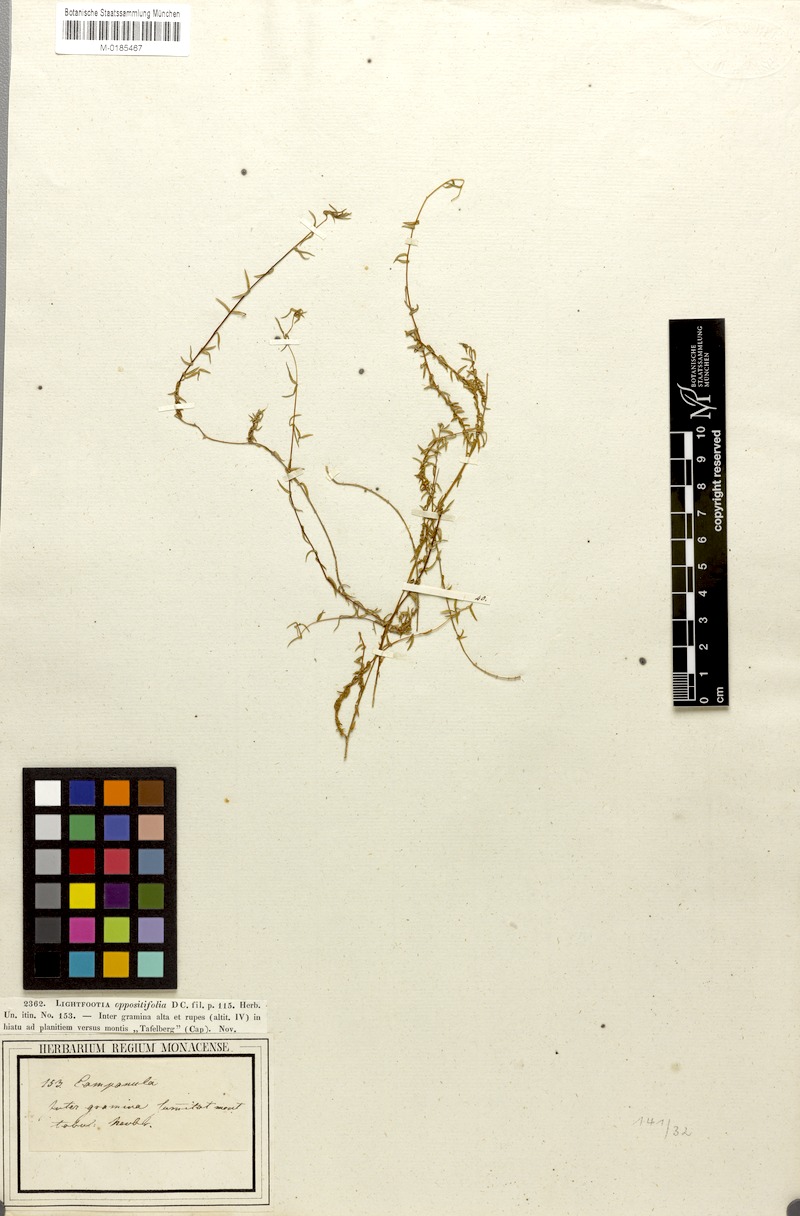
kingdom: Plantae
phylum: Tracheophyta
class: Magnoliopsida
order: Asterales
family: Campanulaceae
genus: Wahlenbergia
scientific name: Wahlenbergia thulinii
